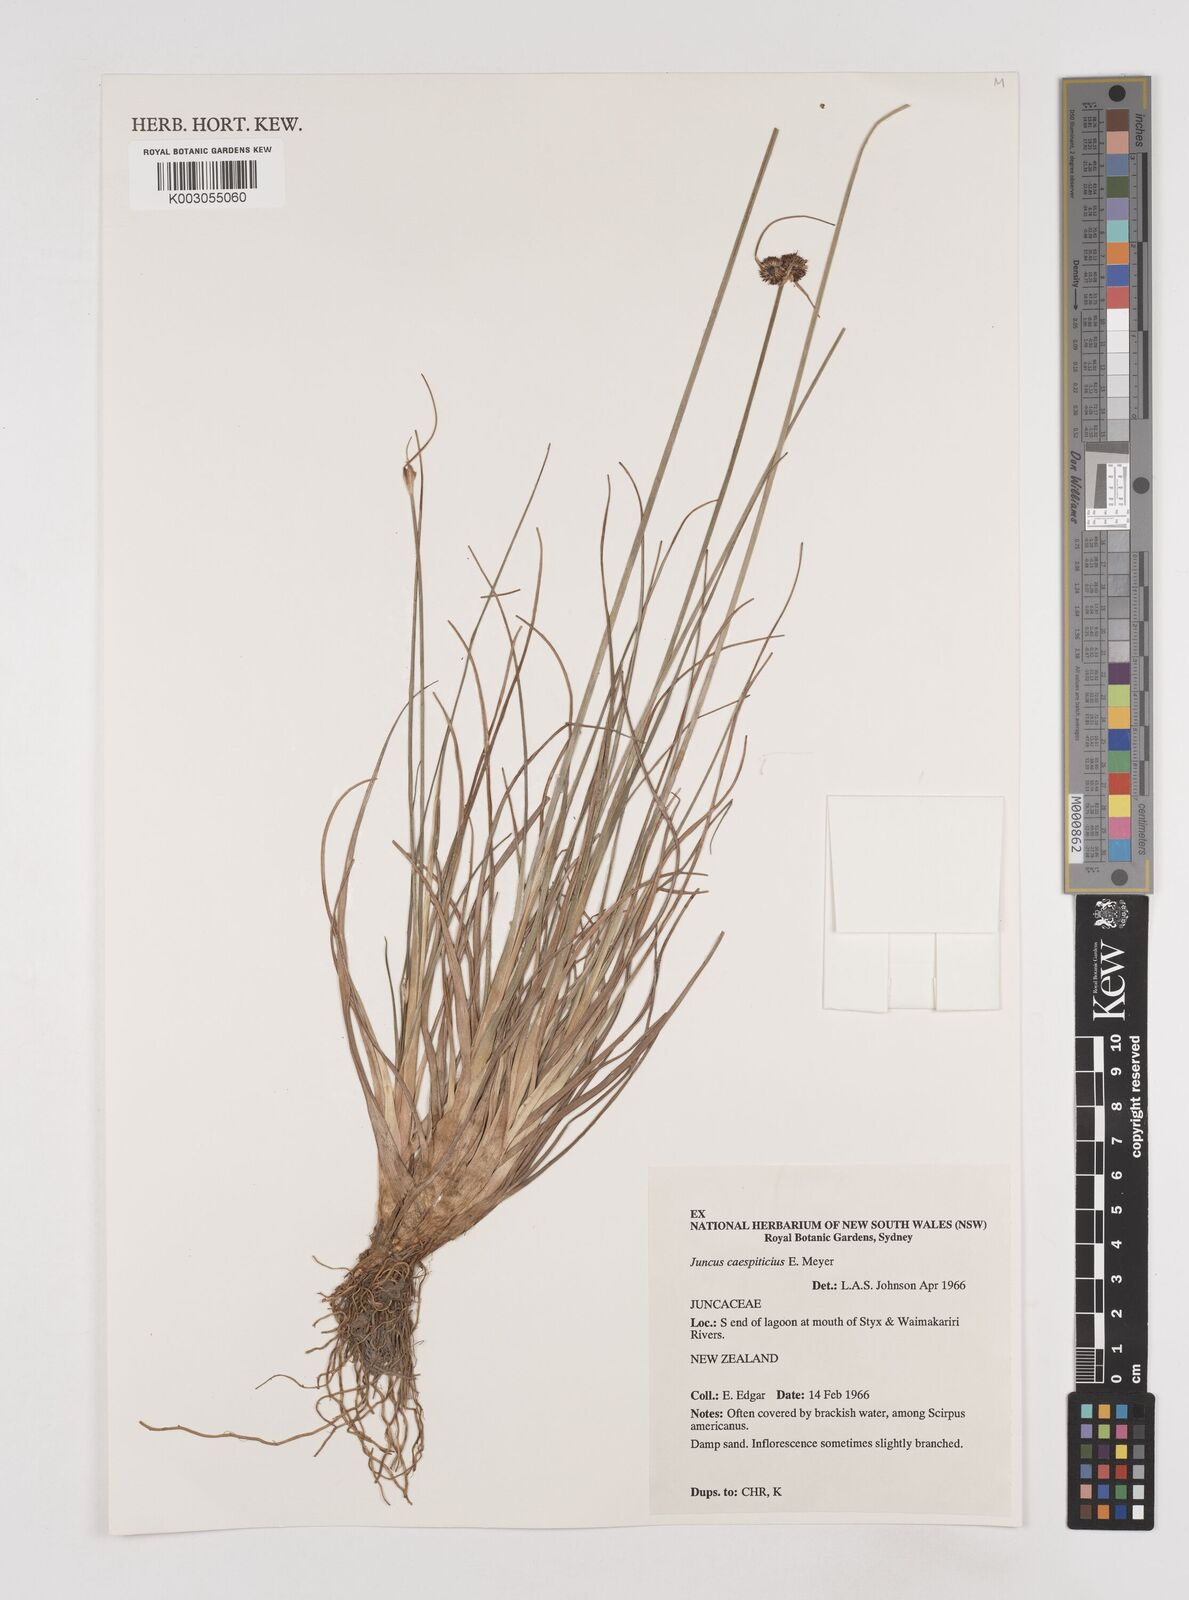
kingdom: Plantae
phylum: Tracheophyta
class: Liliopsida
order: Poales
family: Juncaceae
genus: Juncus
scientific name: Juncus caespiticius
